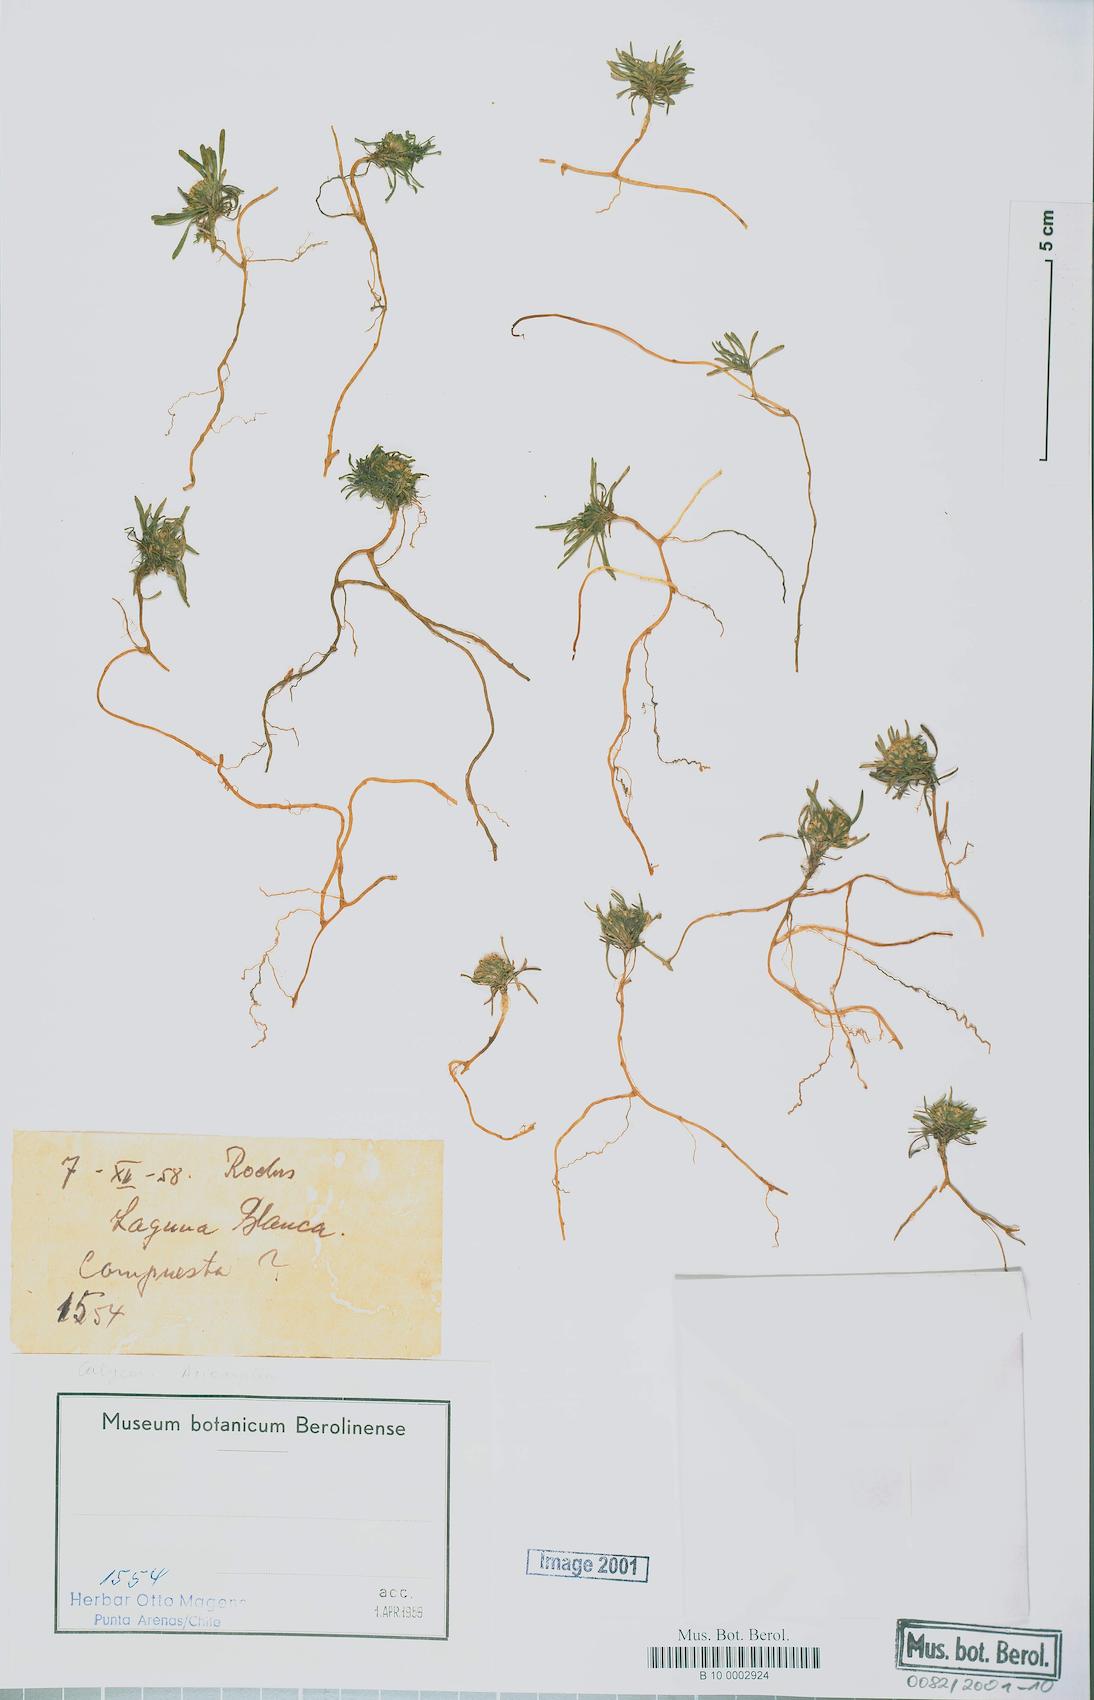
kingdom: Plantae
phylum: Tracheophyta
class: Magnoliopsida
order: Asterales
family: Calyceraceae
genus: Acicarpha
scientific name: Acicarpha
